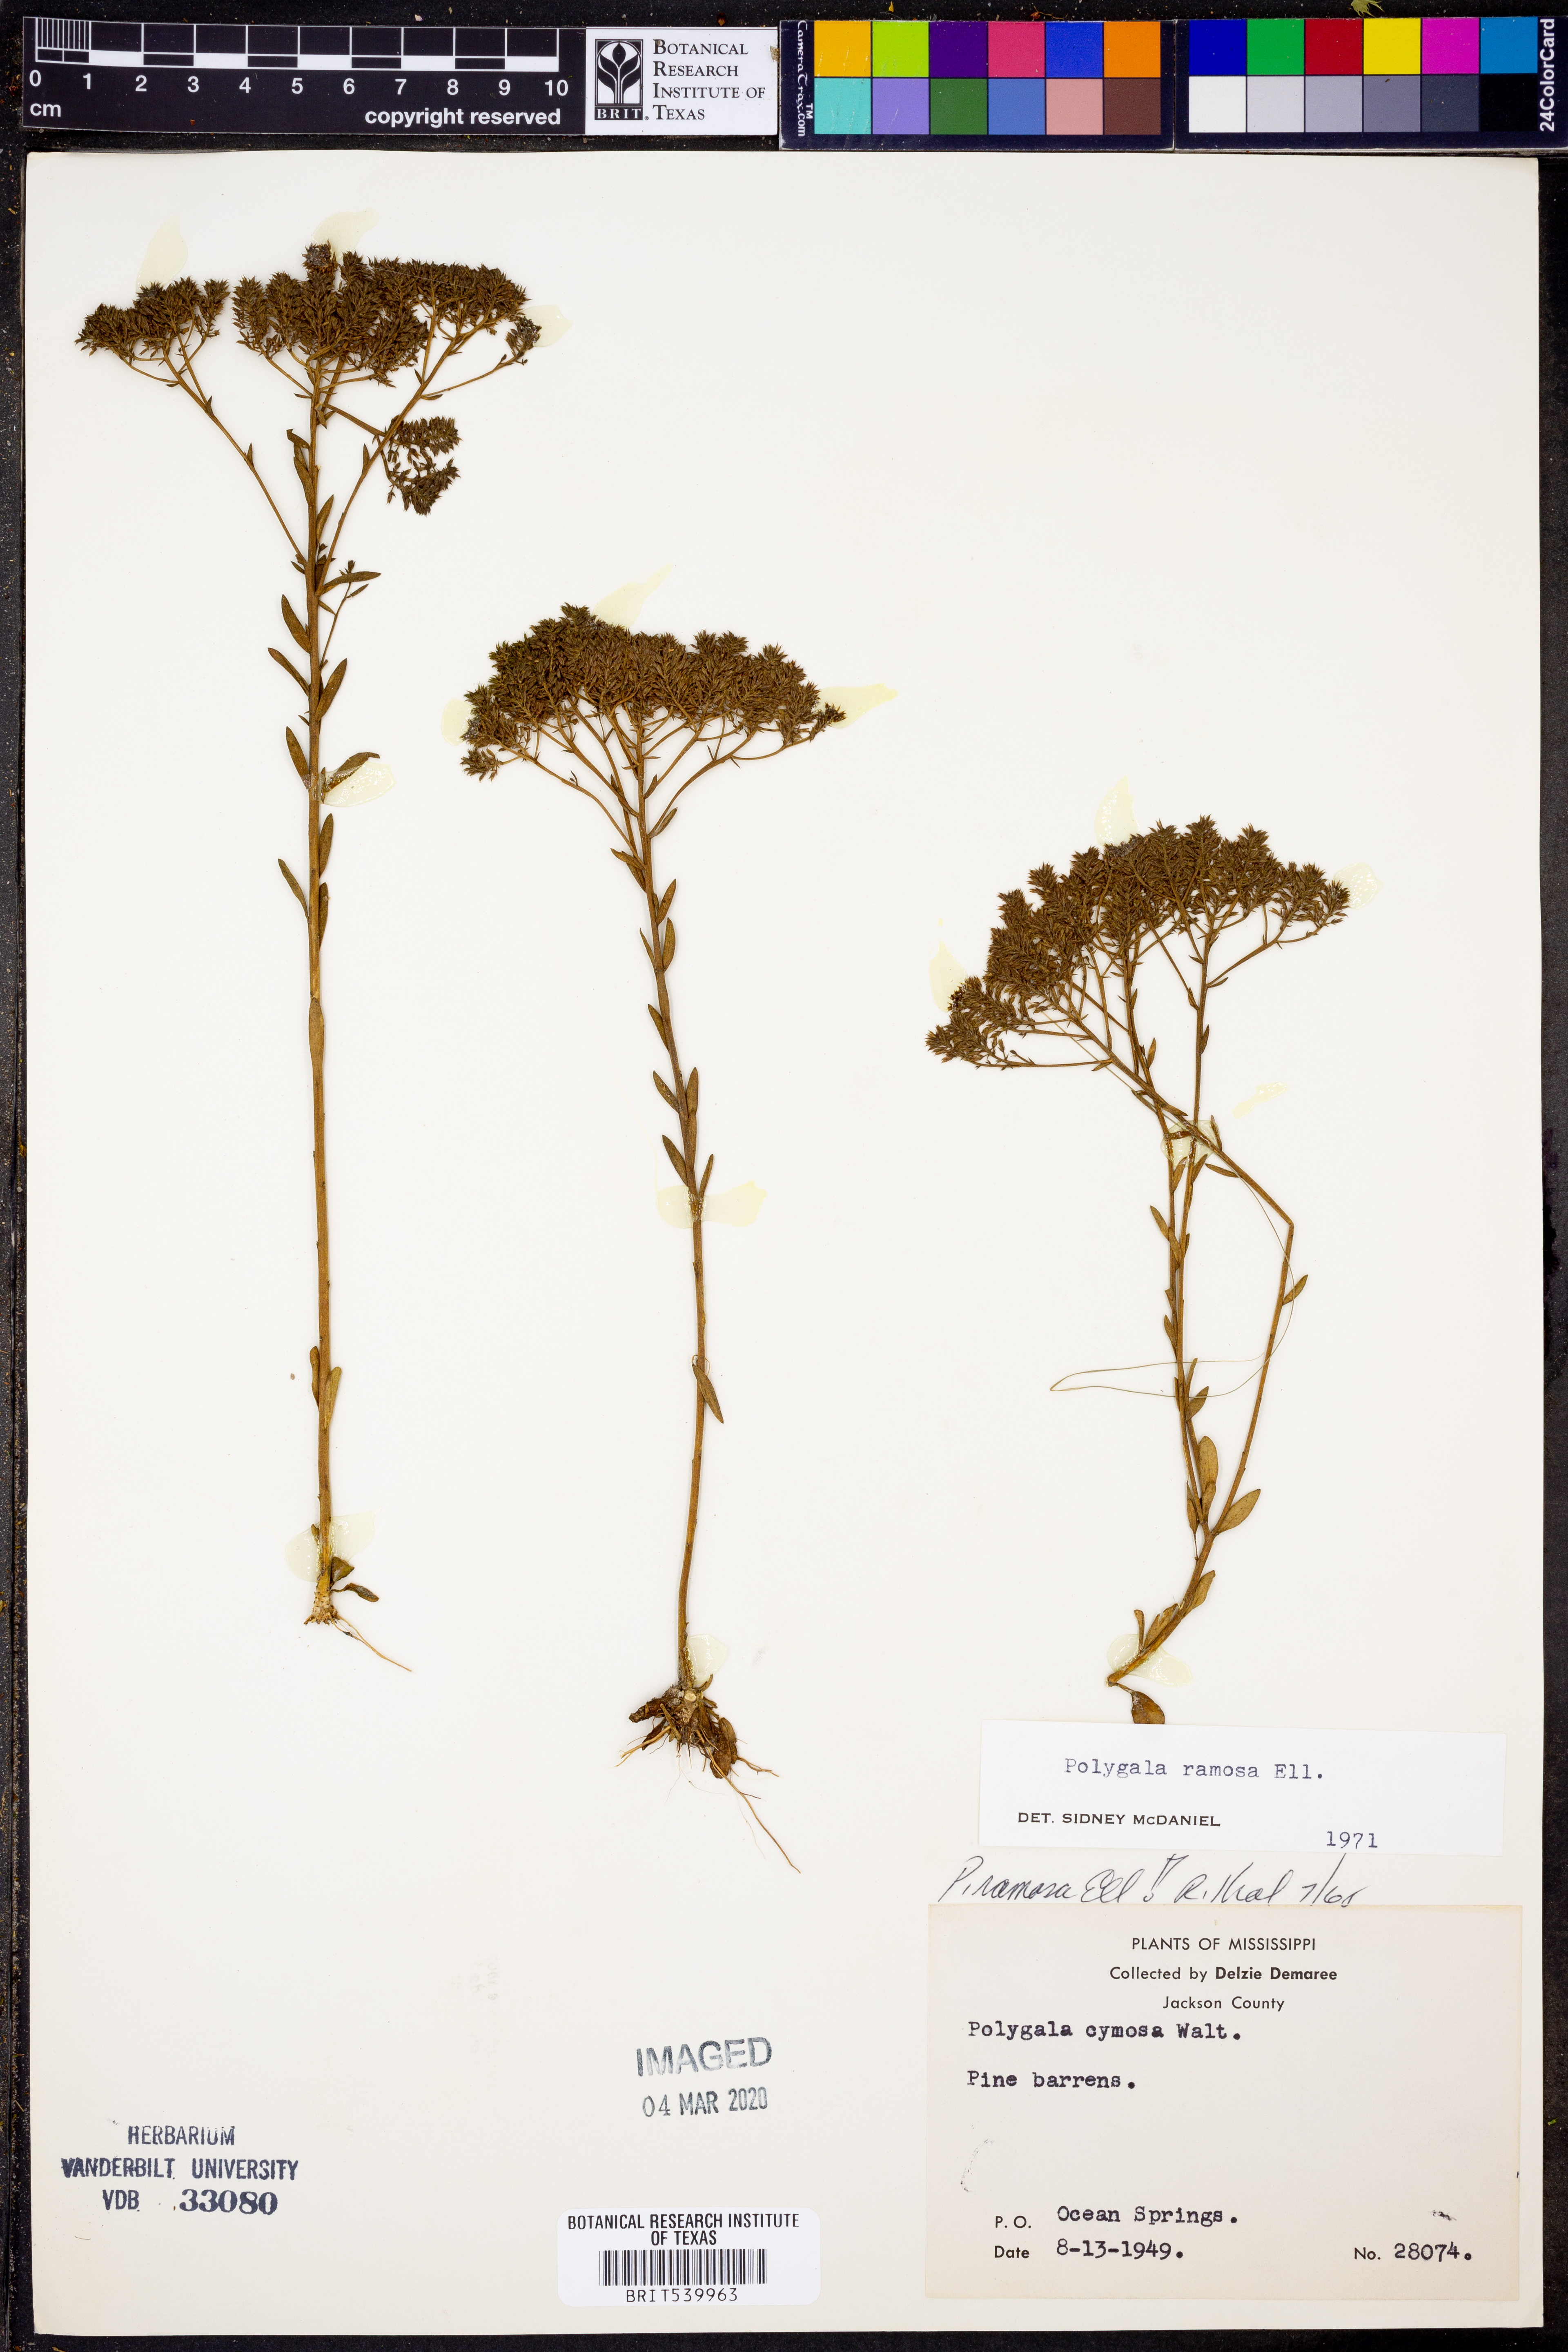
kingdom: Plantae
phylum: Tracheophyta
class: Magnoliopsida
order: Fabales
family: Polygalaceae
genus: Polygala
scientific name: Polygala ramosa
